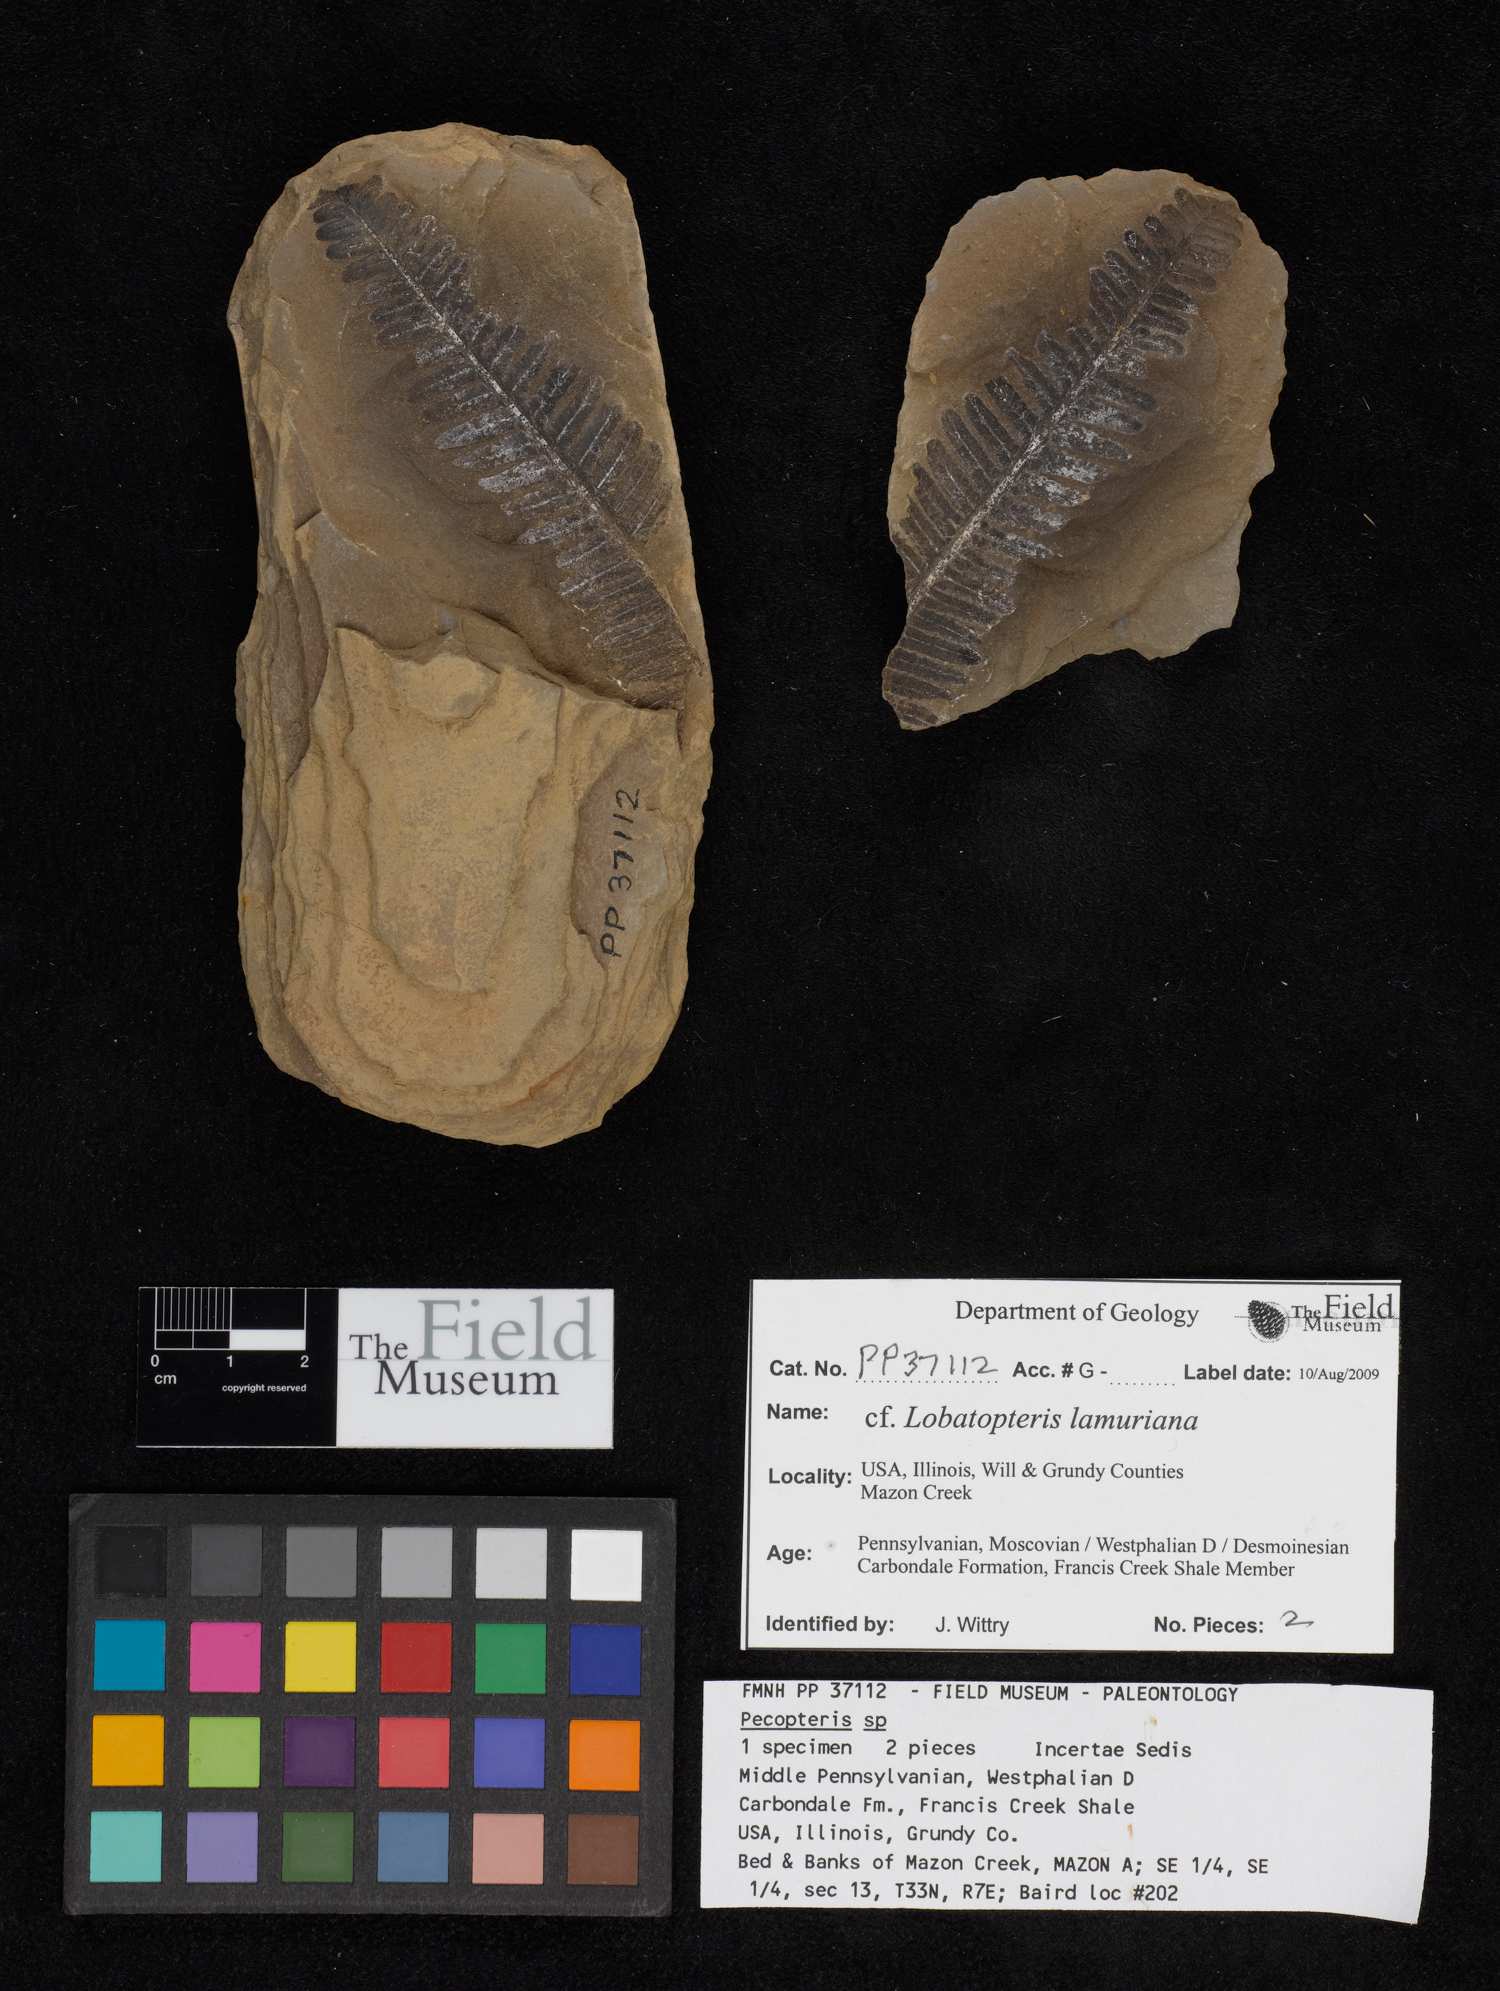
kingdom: Plantae
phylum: Tracheophyta
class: Polypodiopsida
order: Marattiales
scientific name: Marattiales
